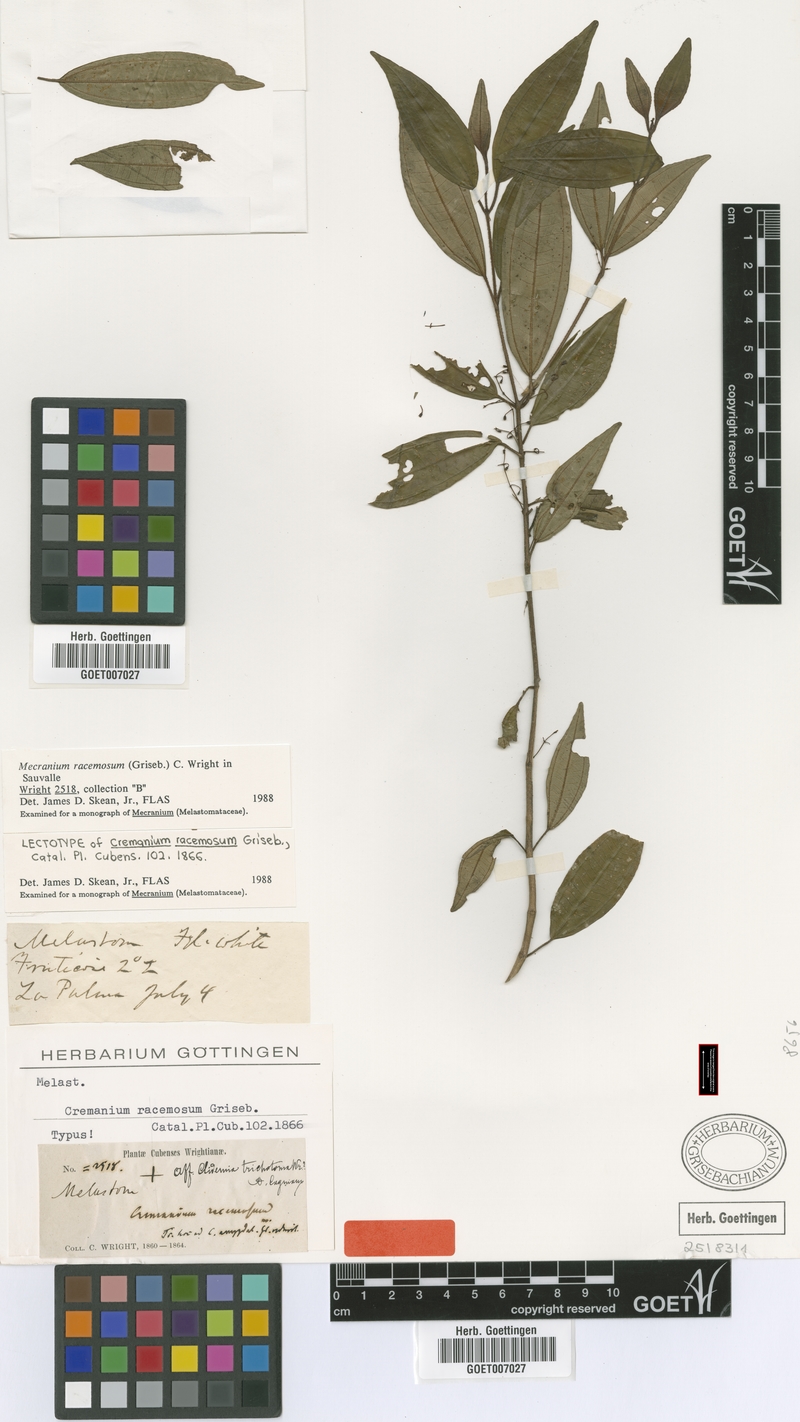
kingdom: Plantae
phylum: Tracheophyta
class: Magnoliopsida
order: Myrtales
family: Melastomataceae
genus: Miconia
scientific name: Miconia conica
